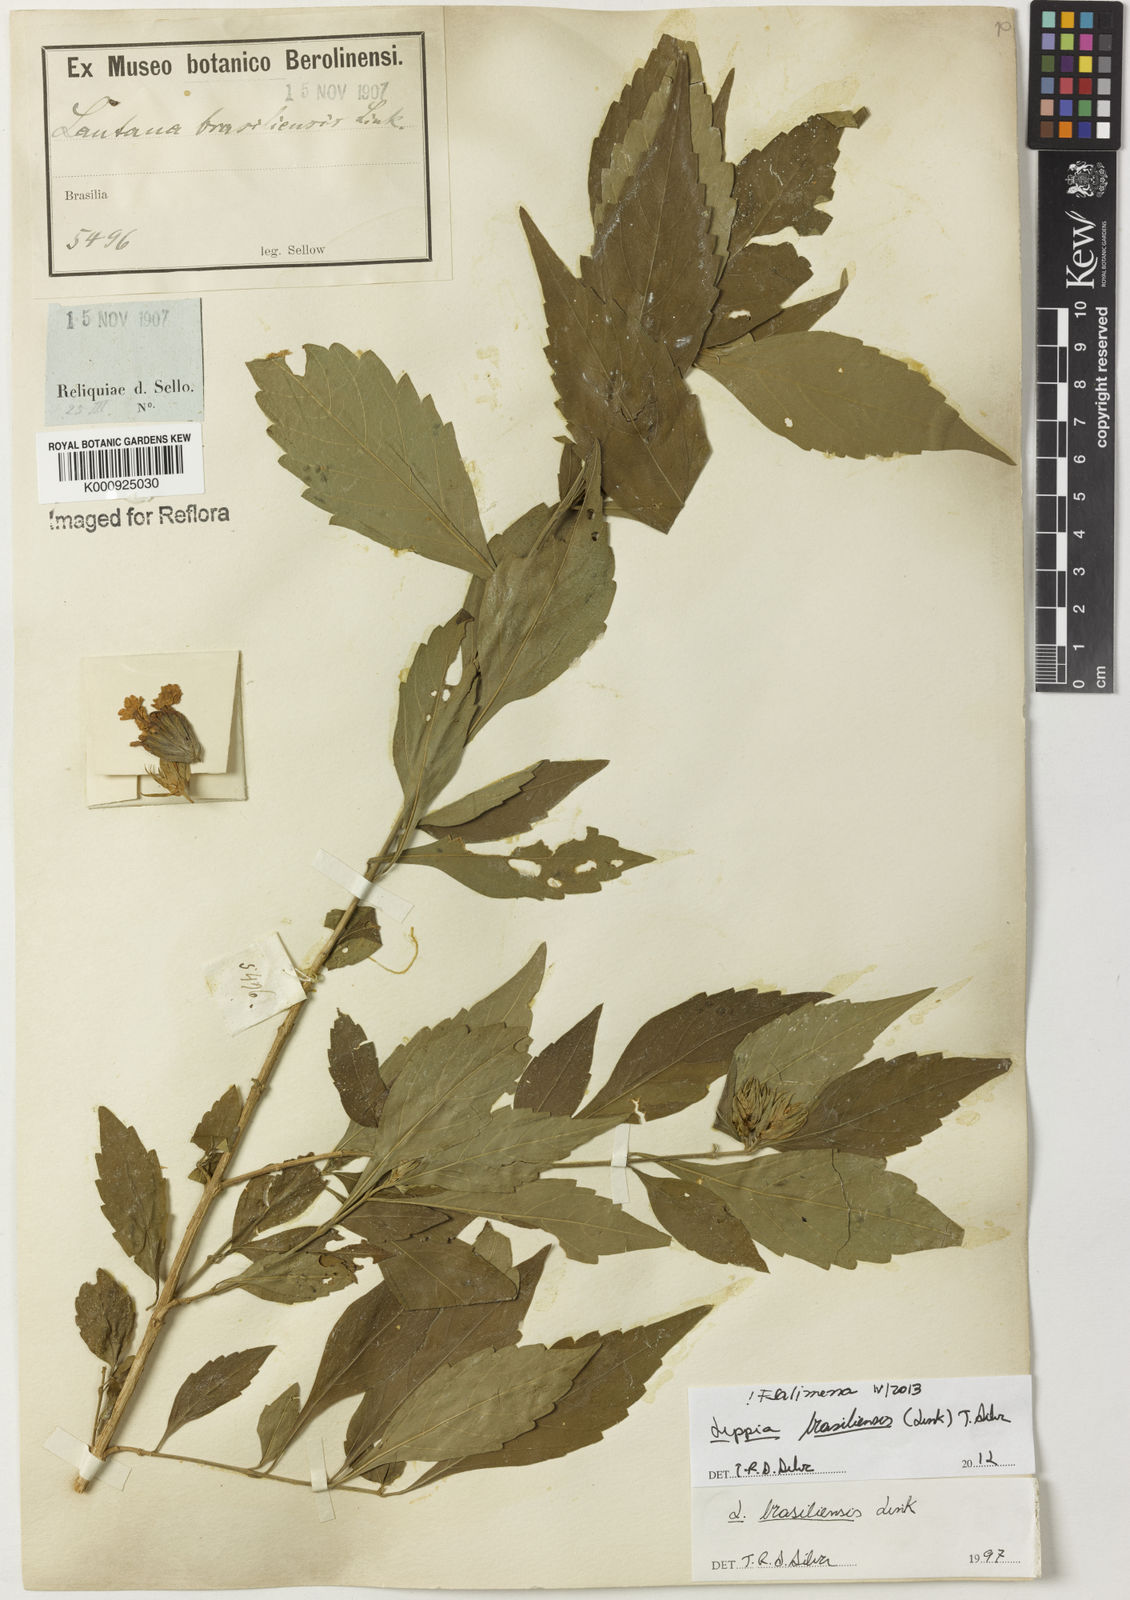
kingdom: Plantae
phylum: Tracheophyta
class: Magnoliopsida
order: Lamiales
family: Verbenaceae
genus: Lippia
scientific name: Lippia brasiliensis
